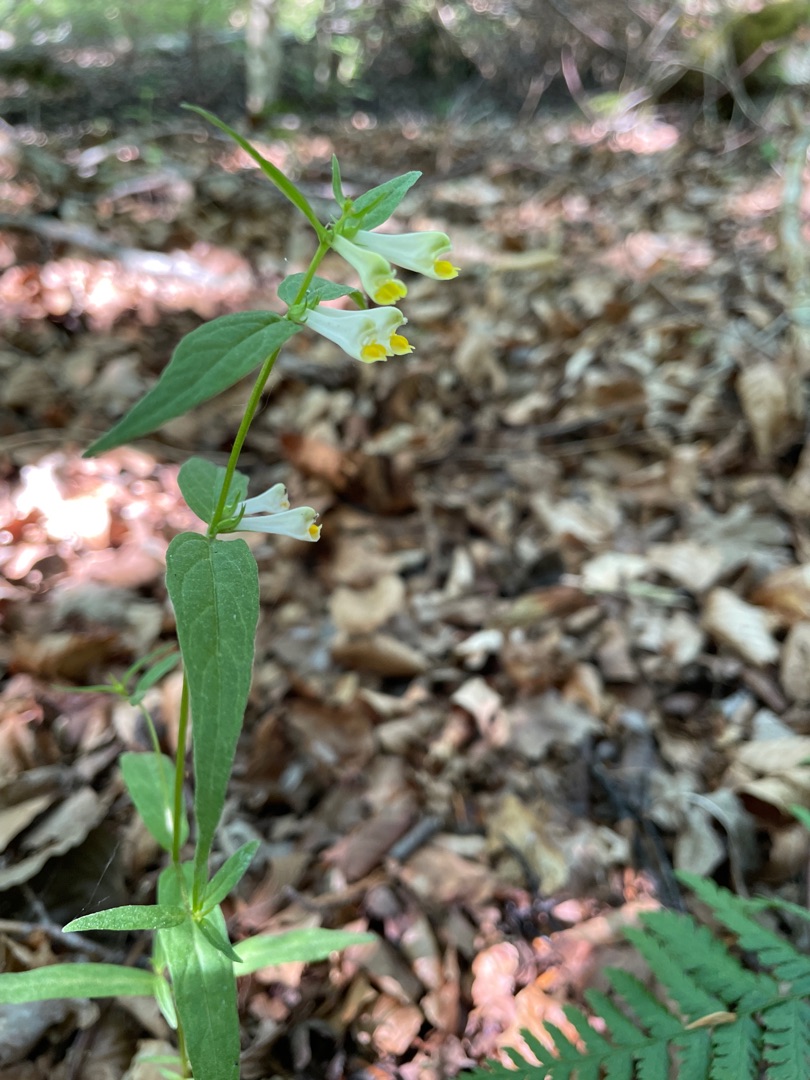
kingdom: Plantae
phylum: Tracheophyta
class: Magnoliopsida
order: Lamiales
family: Orobanchaceae
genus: Melampyrum
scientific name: Melampyrum pratense
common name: Almindelig kohvede
